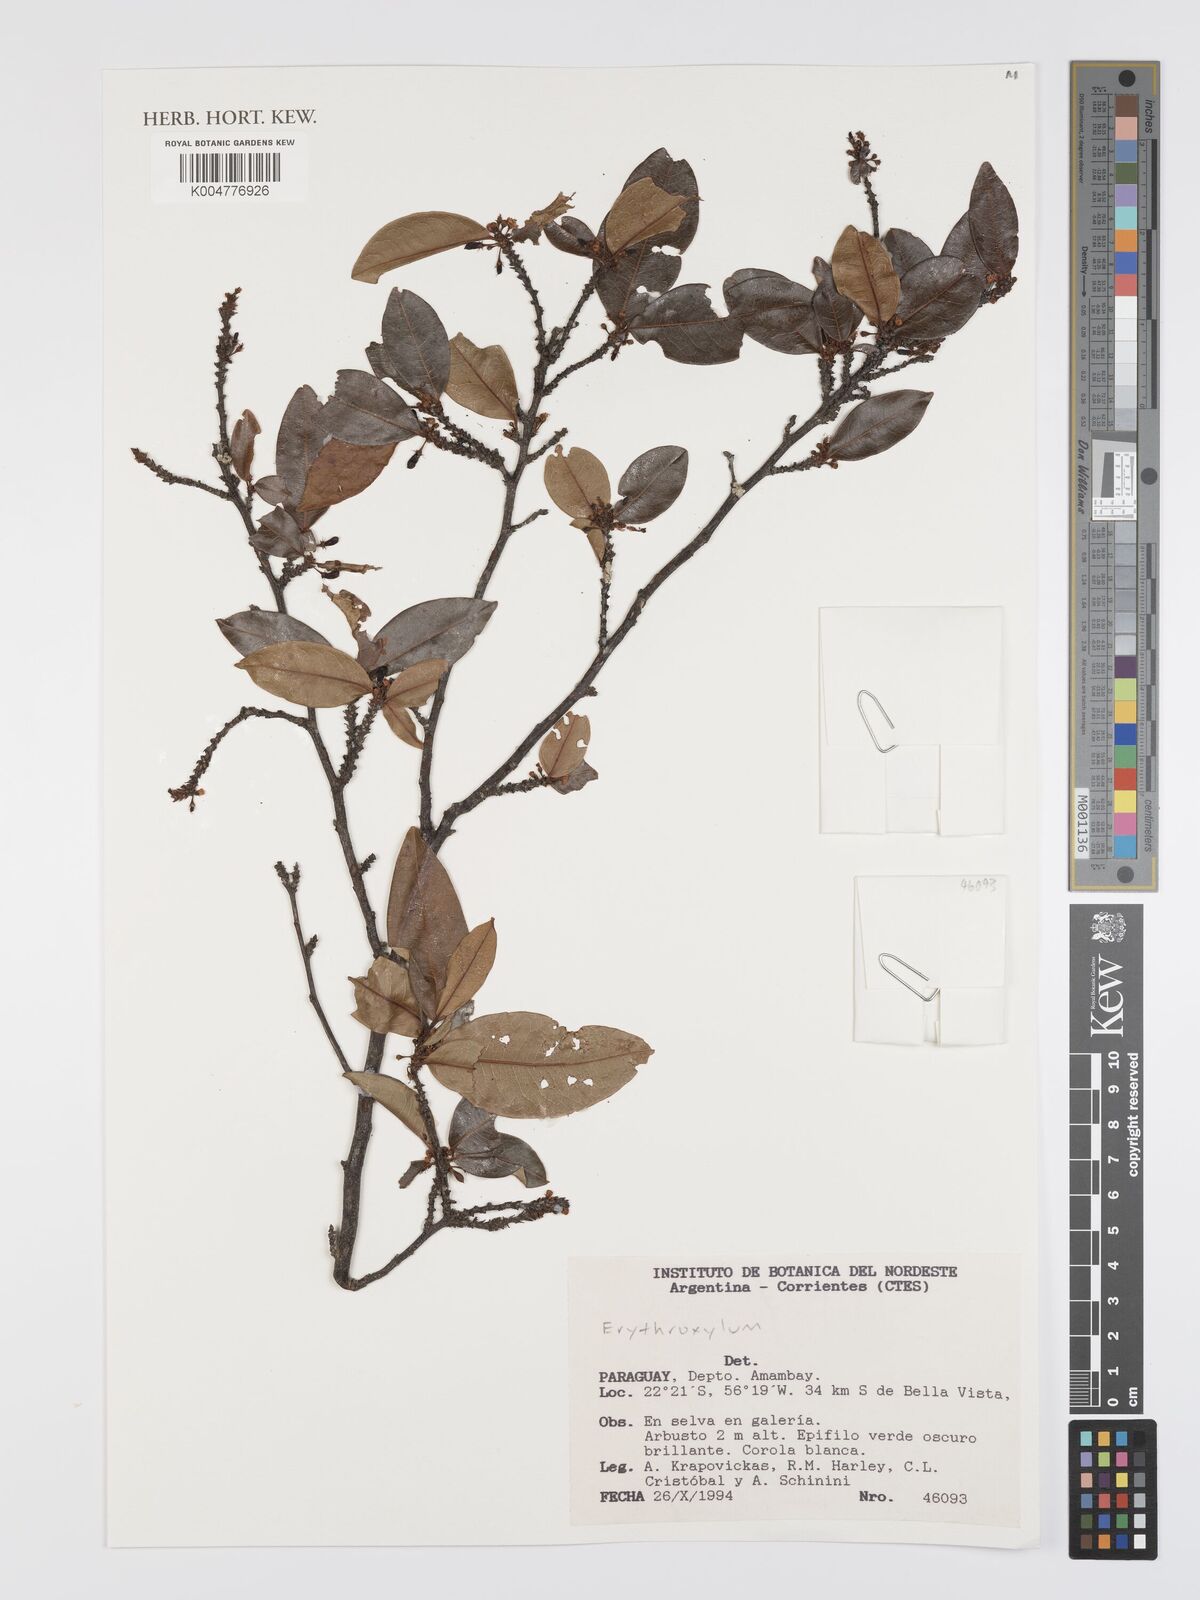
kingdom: Plantae
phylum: Tracheophyta
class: Magnoliopsida
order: Malpighiales
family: Erythroxylaceae
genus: Erythroxylum
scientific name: Erythroxylum
